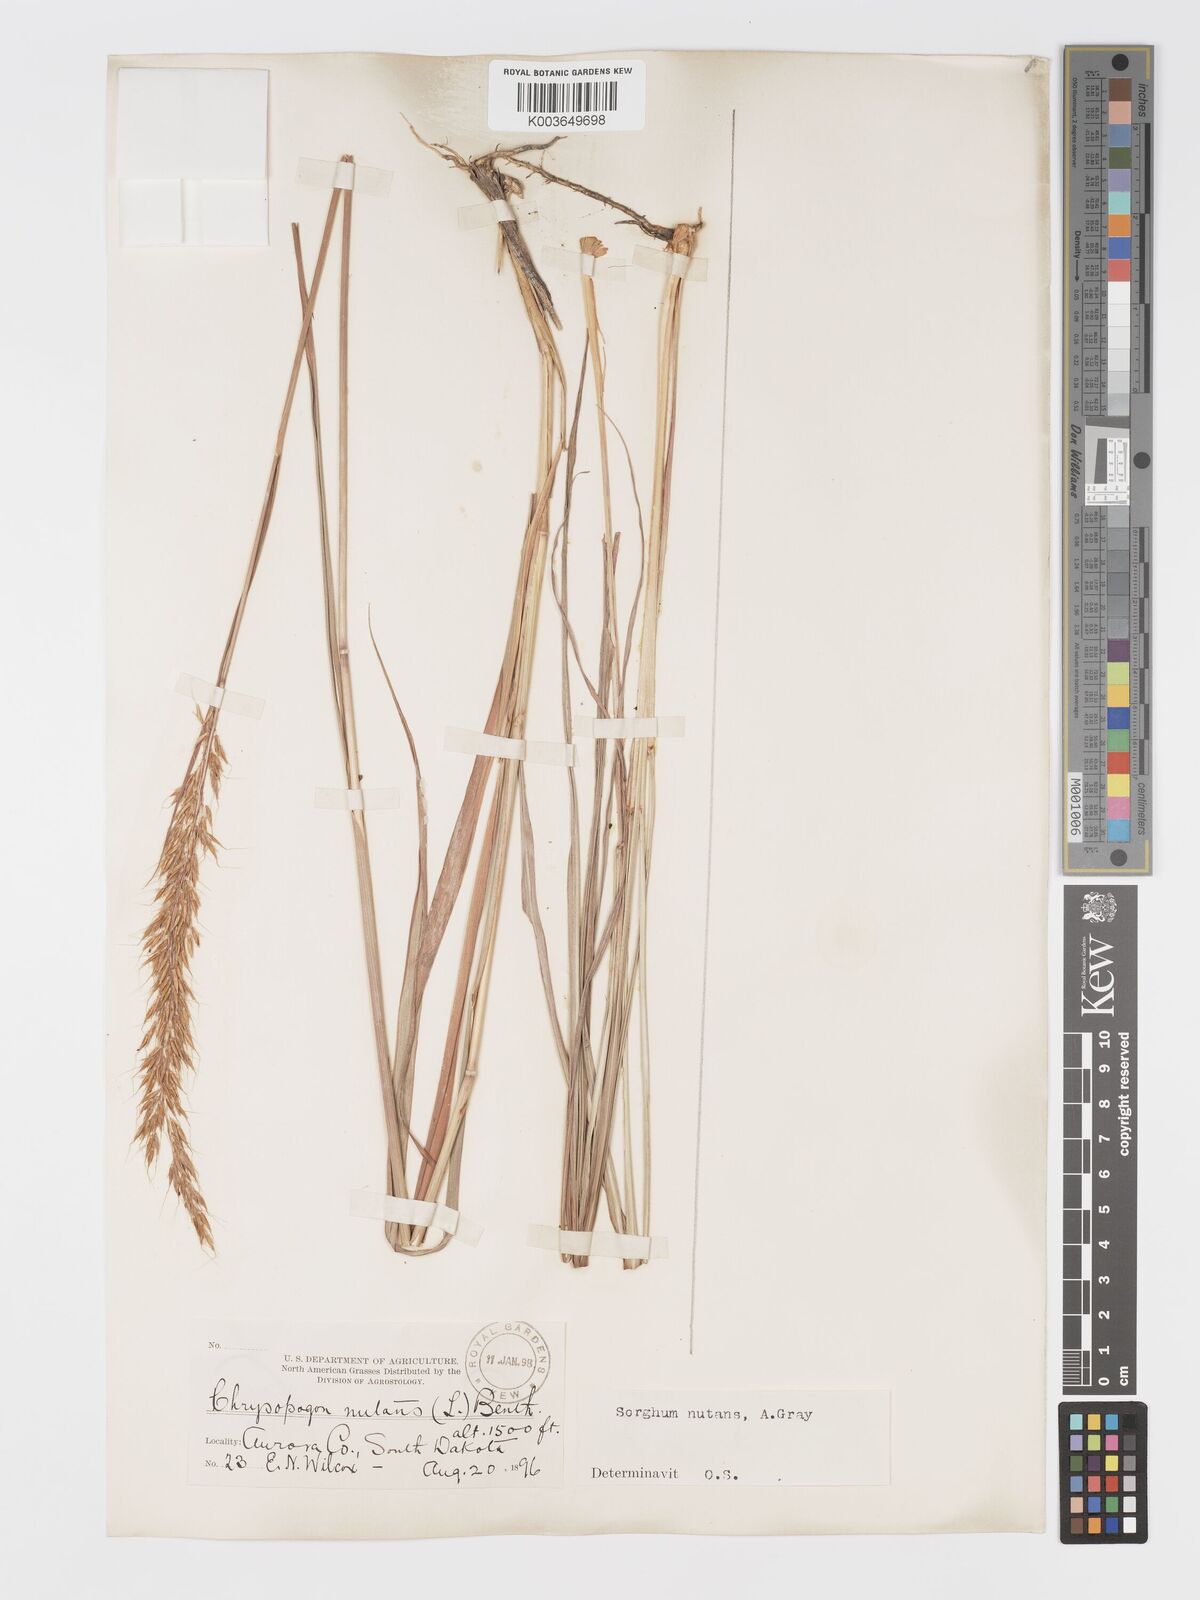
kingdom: Plantae
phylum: Tracheophyta
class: Liliopsida
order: Poales
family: Poaceae
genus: Sorghastrum
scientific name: Sorghastrum nutans
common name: Indian grass
